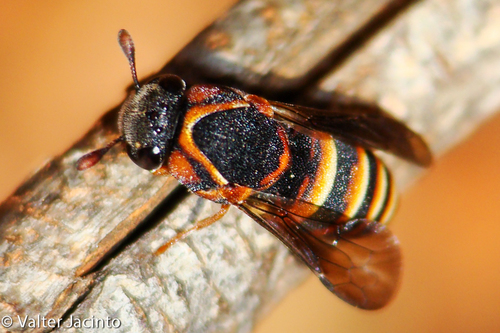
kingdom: Animalia
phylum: Arthropoda
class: Insecta
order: Hymenoptera
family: Masaridae
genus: Celonites
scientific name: Celonites mayeti
